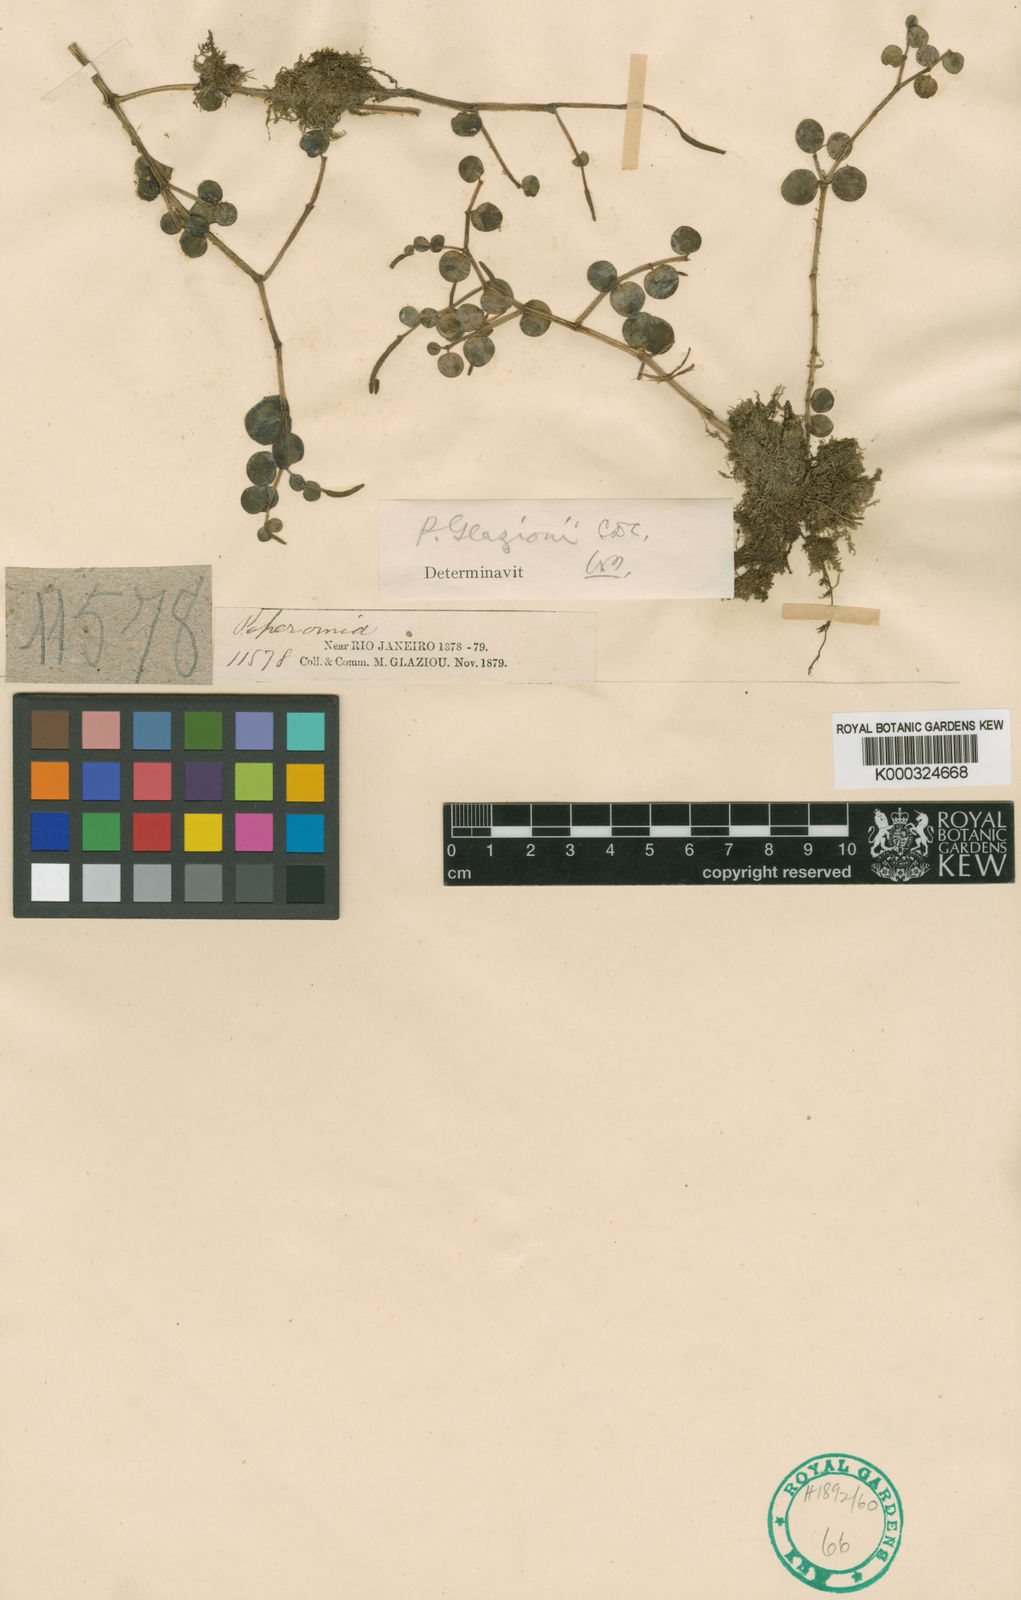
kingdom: Plantae
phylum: Tracheophyta
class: Magnoliopsida
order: Piperales
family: Piperaceae
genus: Peperomia
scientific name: Peperomia glaziovii
